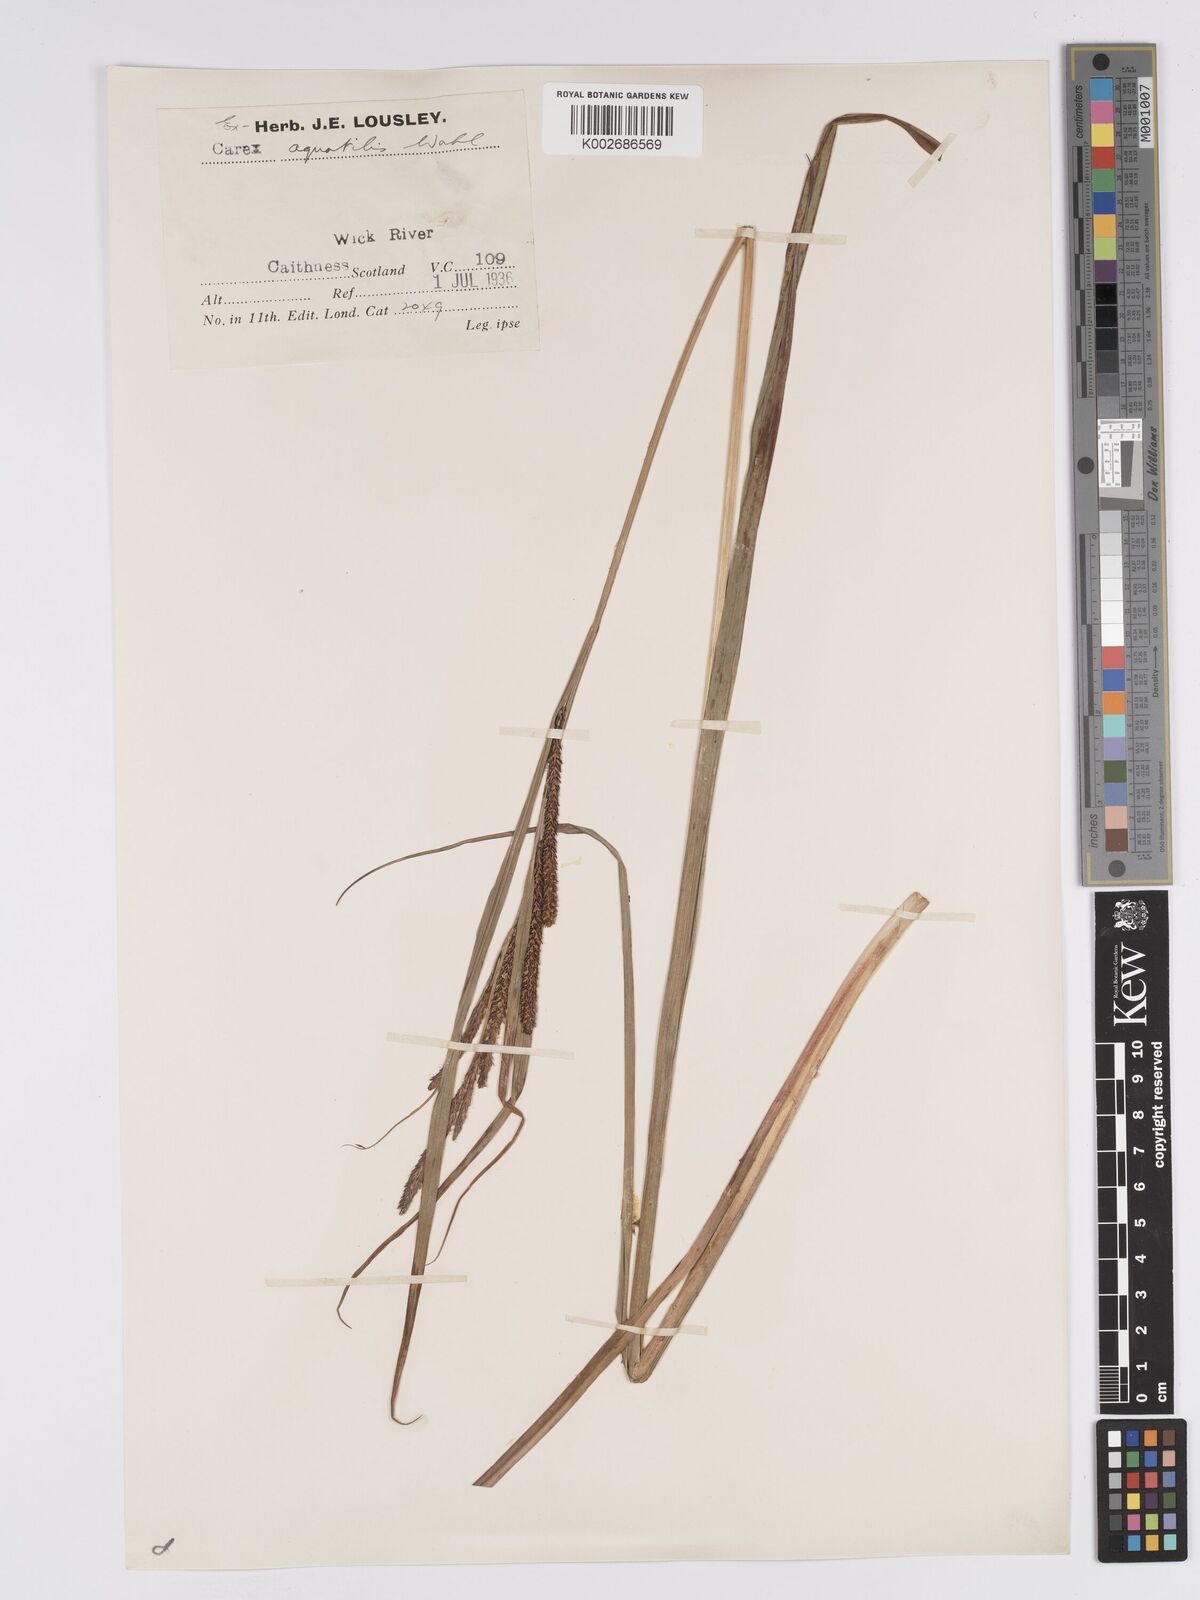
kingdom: Plantae
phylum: Tracheophyta
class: Liliopsida
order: Poales
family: Cyperaceae
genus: Carex
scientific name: Carex aquatilis
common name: Water sedge
